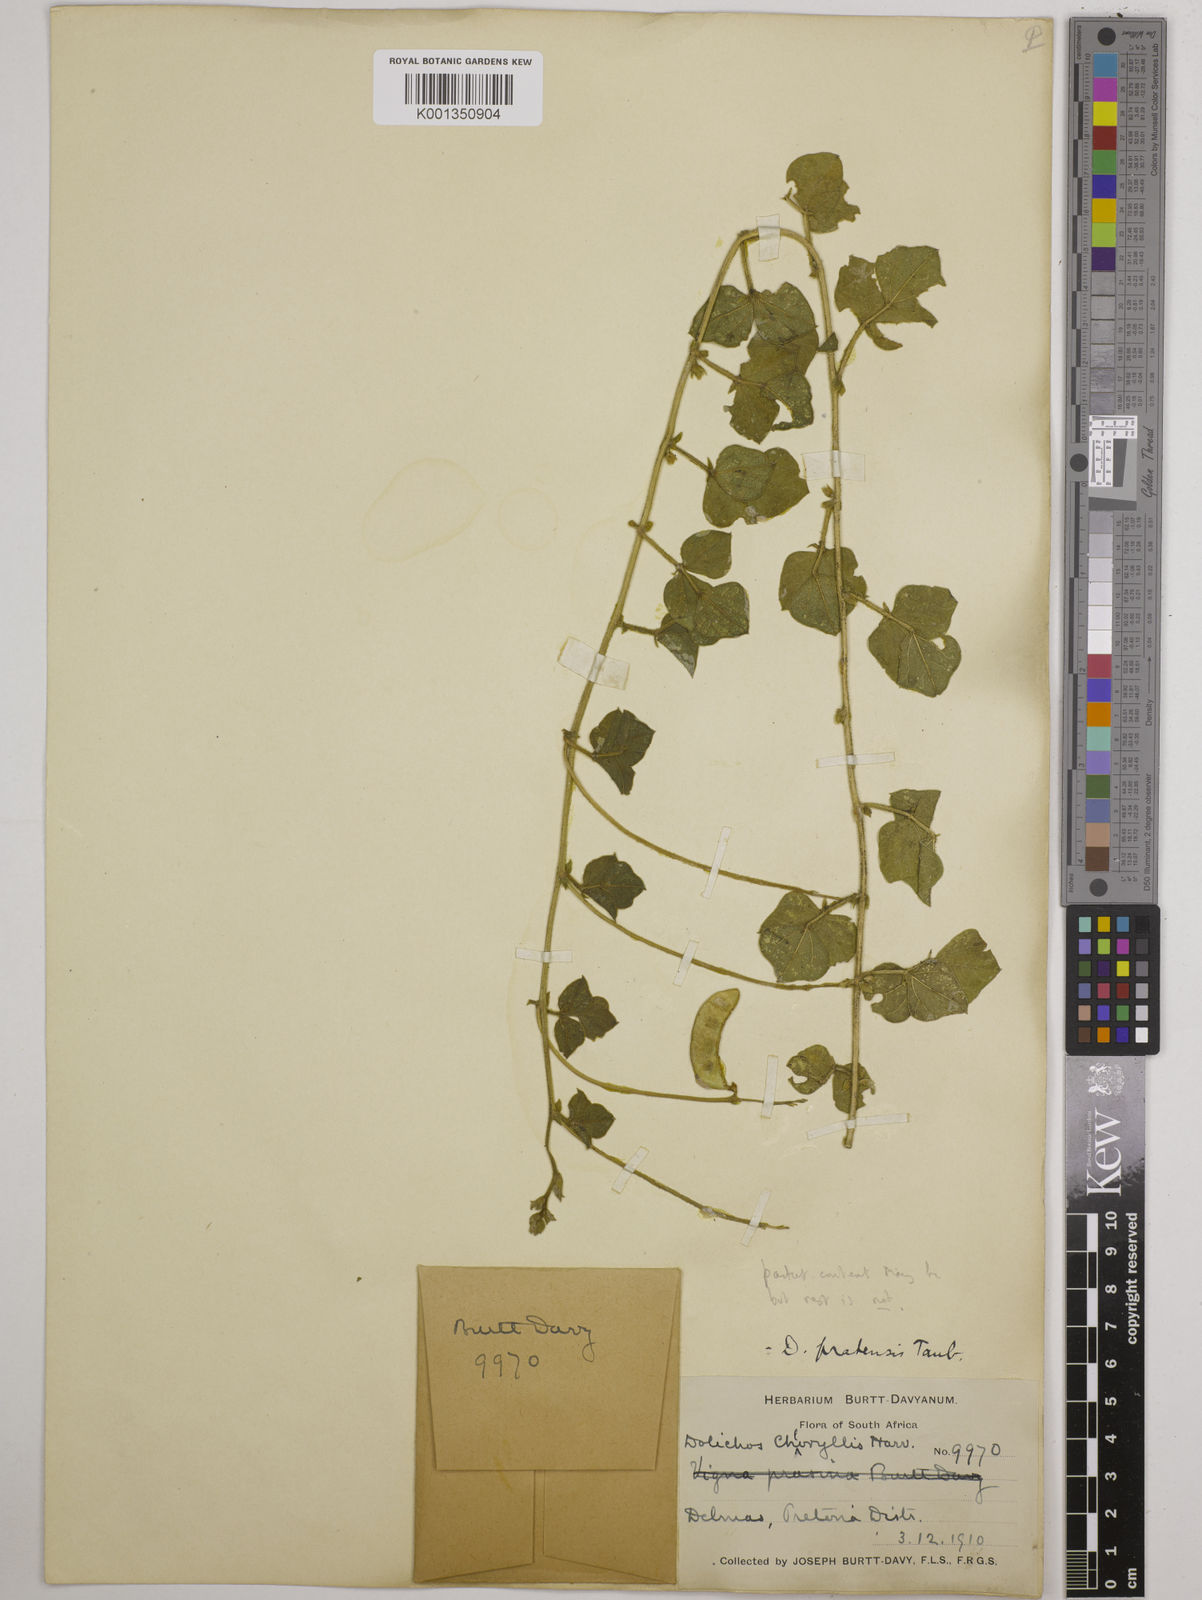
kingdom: Plantae
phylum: Tracheophyta
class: Magnoliopsida
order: Fabales
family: Fabaceae
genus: Dolichos
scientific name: Dolichos falciformis
